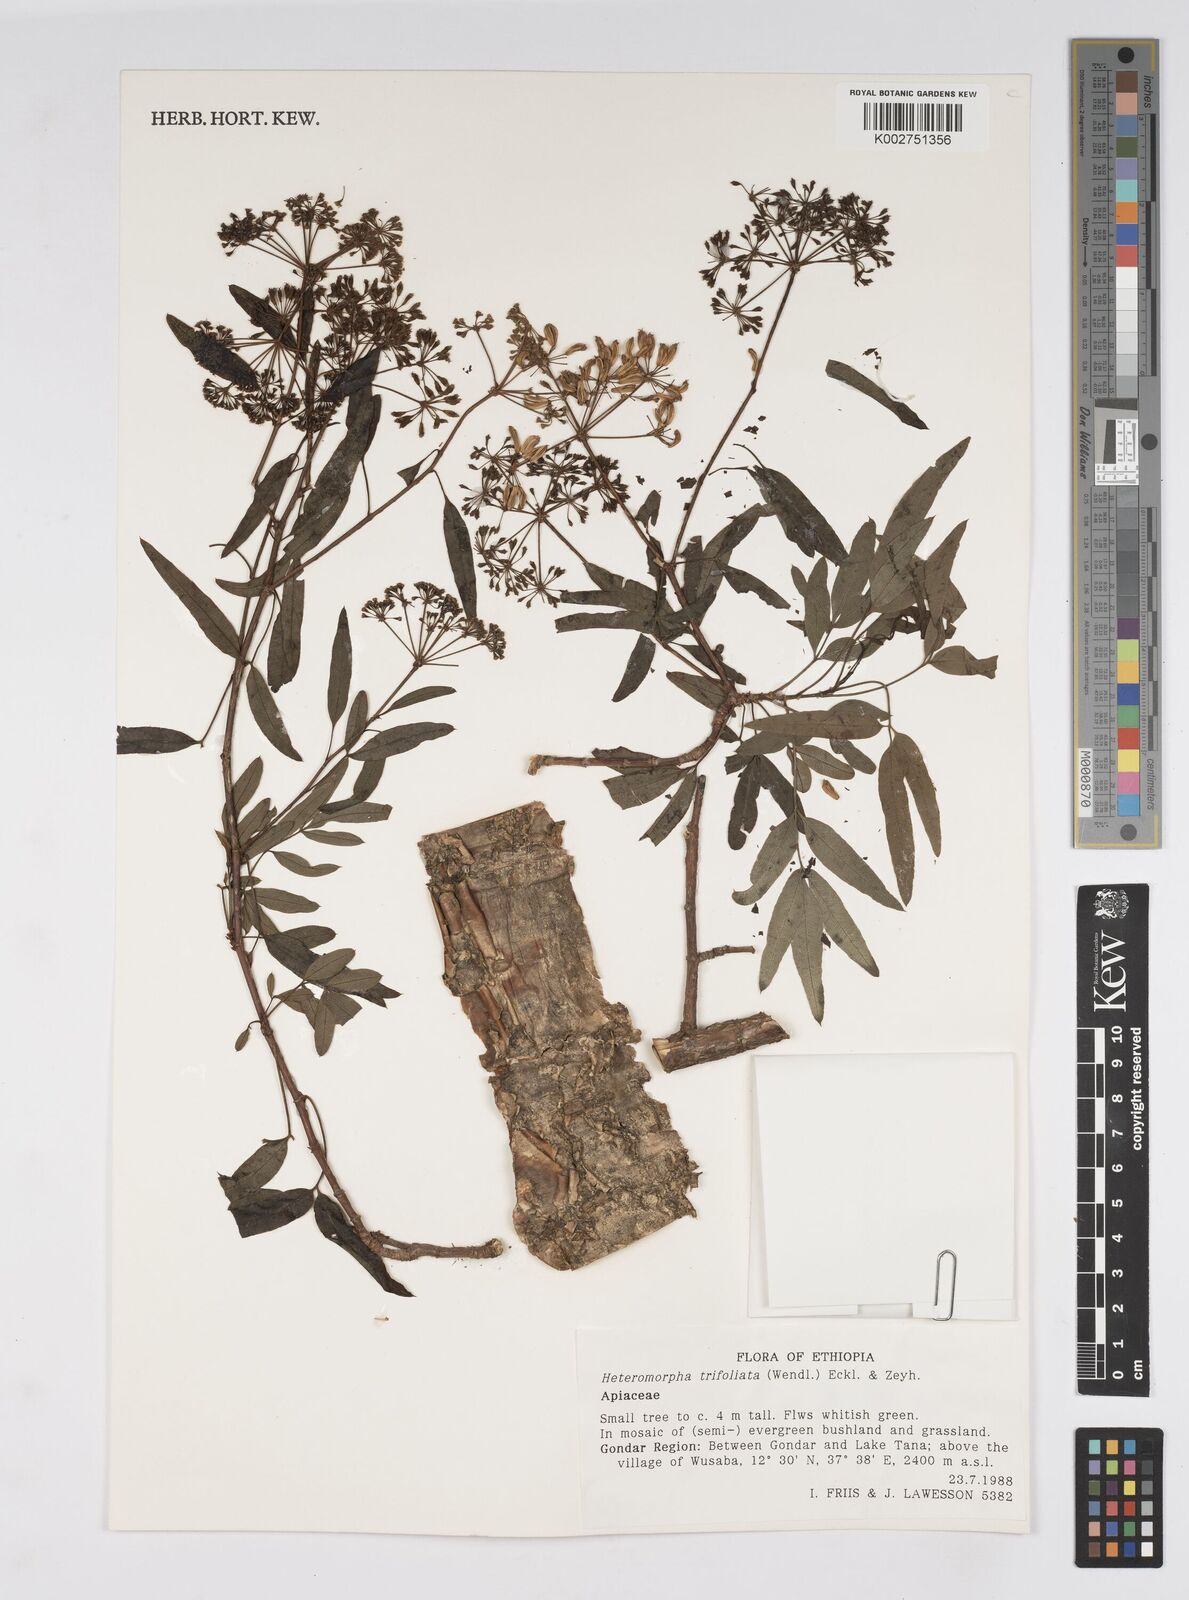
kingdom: Plantae
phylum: Tracheophyta
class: Magnoliopsida
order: Apiales
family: Apiaceae
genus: Heteromorpha
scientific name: Heteromorpha
